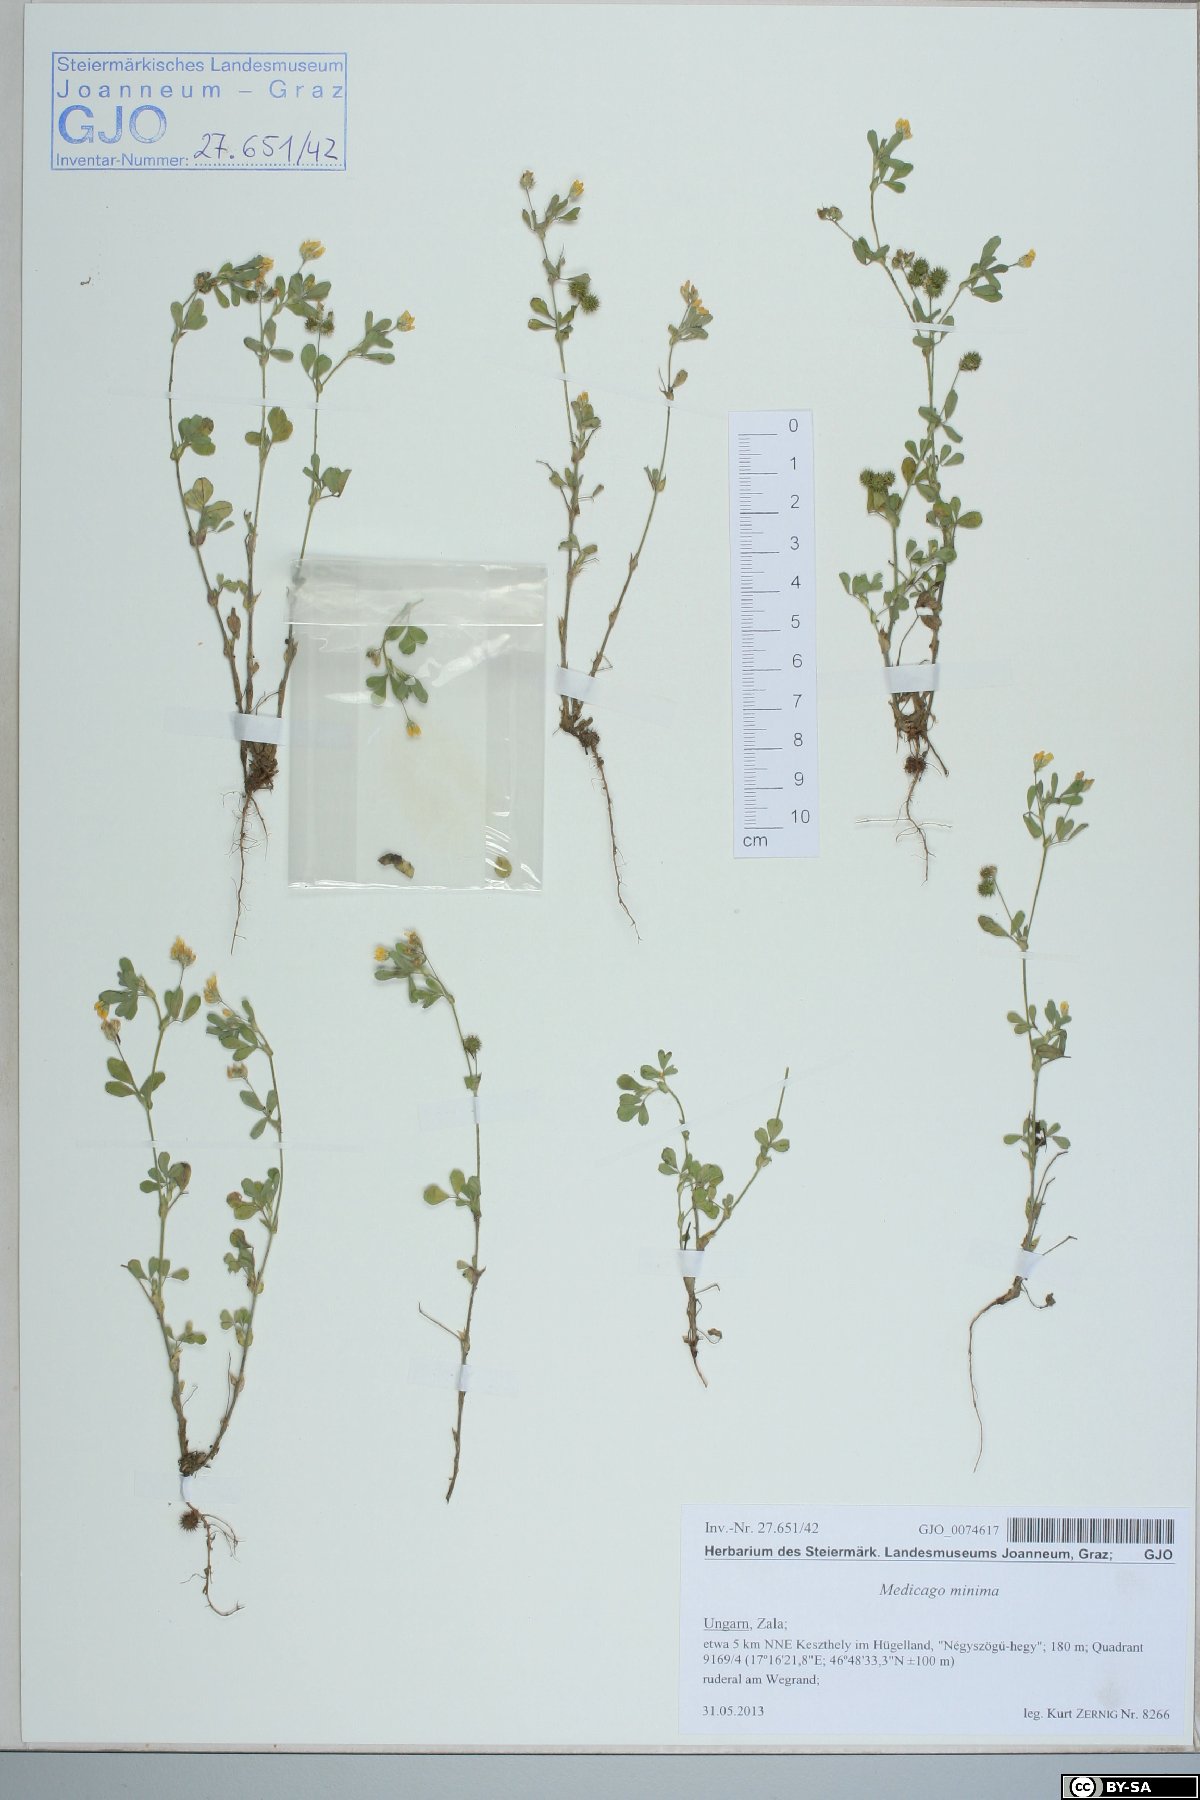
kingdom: Plantae
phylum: Tracheophyta
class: Magnoliopsida
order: Fabales
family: Fabaceae
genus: Medicago
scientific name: Medicago minima
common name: Little bur-clover
